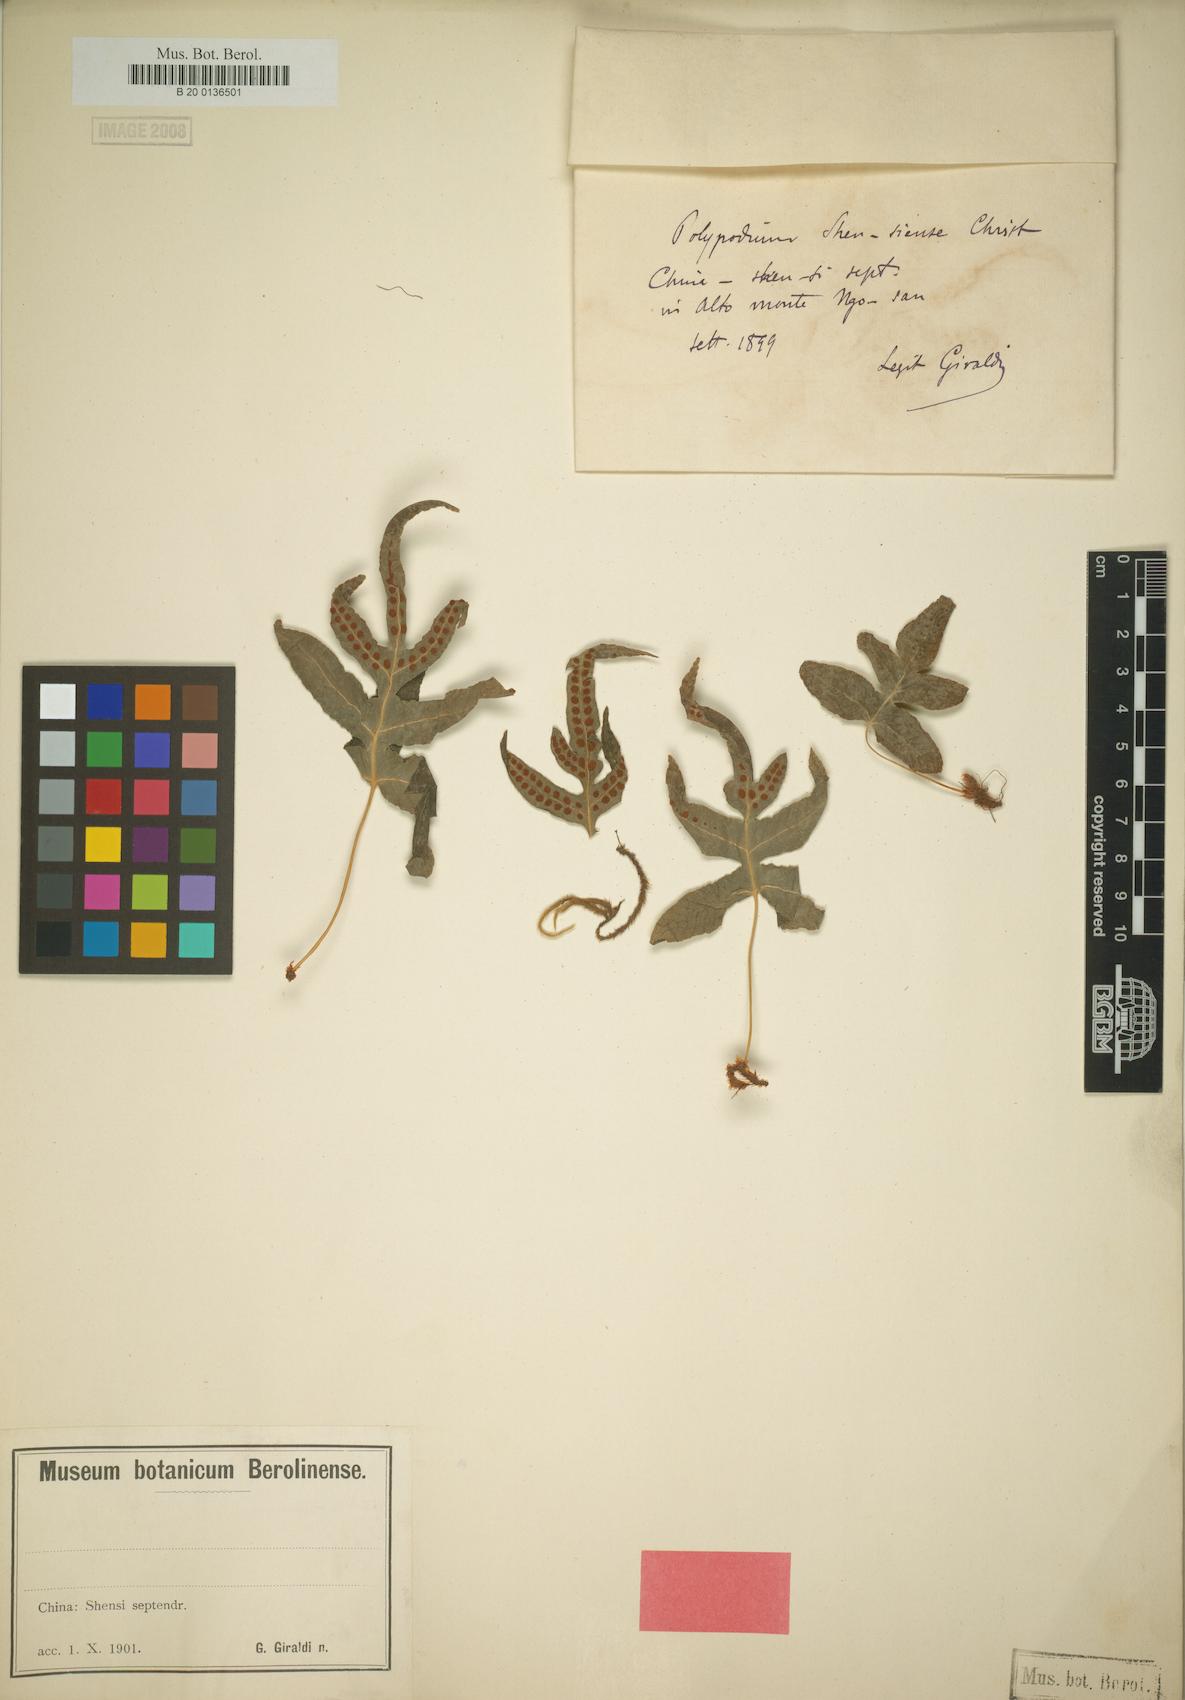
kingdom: Plantae
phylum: Tracheophyta
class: Polypodiopsida
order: Polypodiales
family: Polypodiaceae
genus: Selliguea
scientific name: Selliguea senanensis
